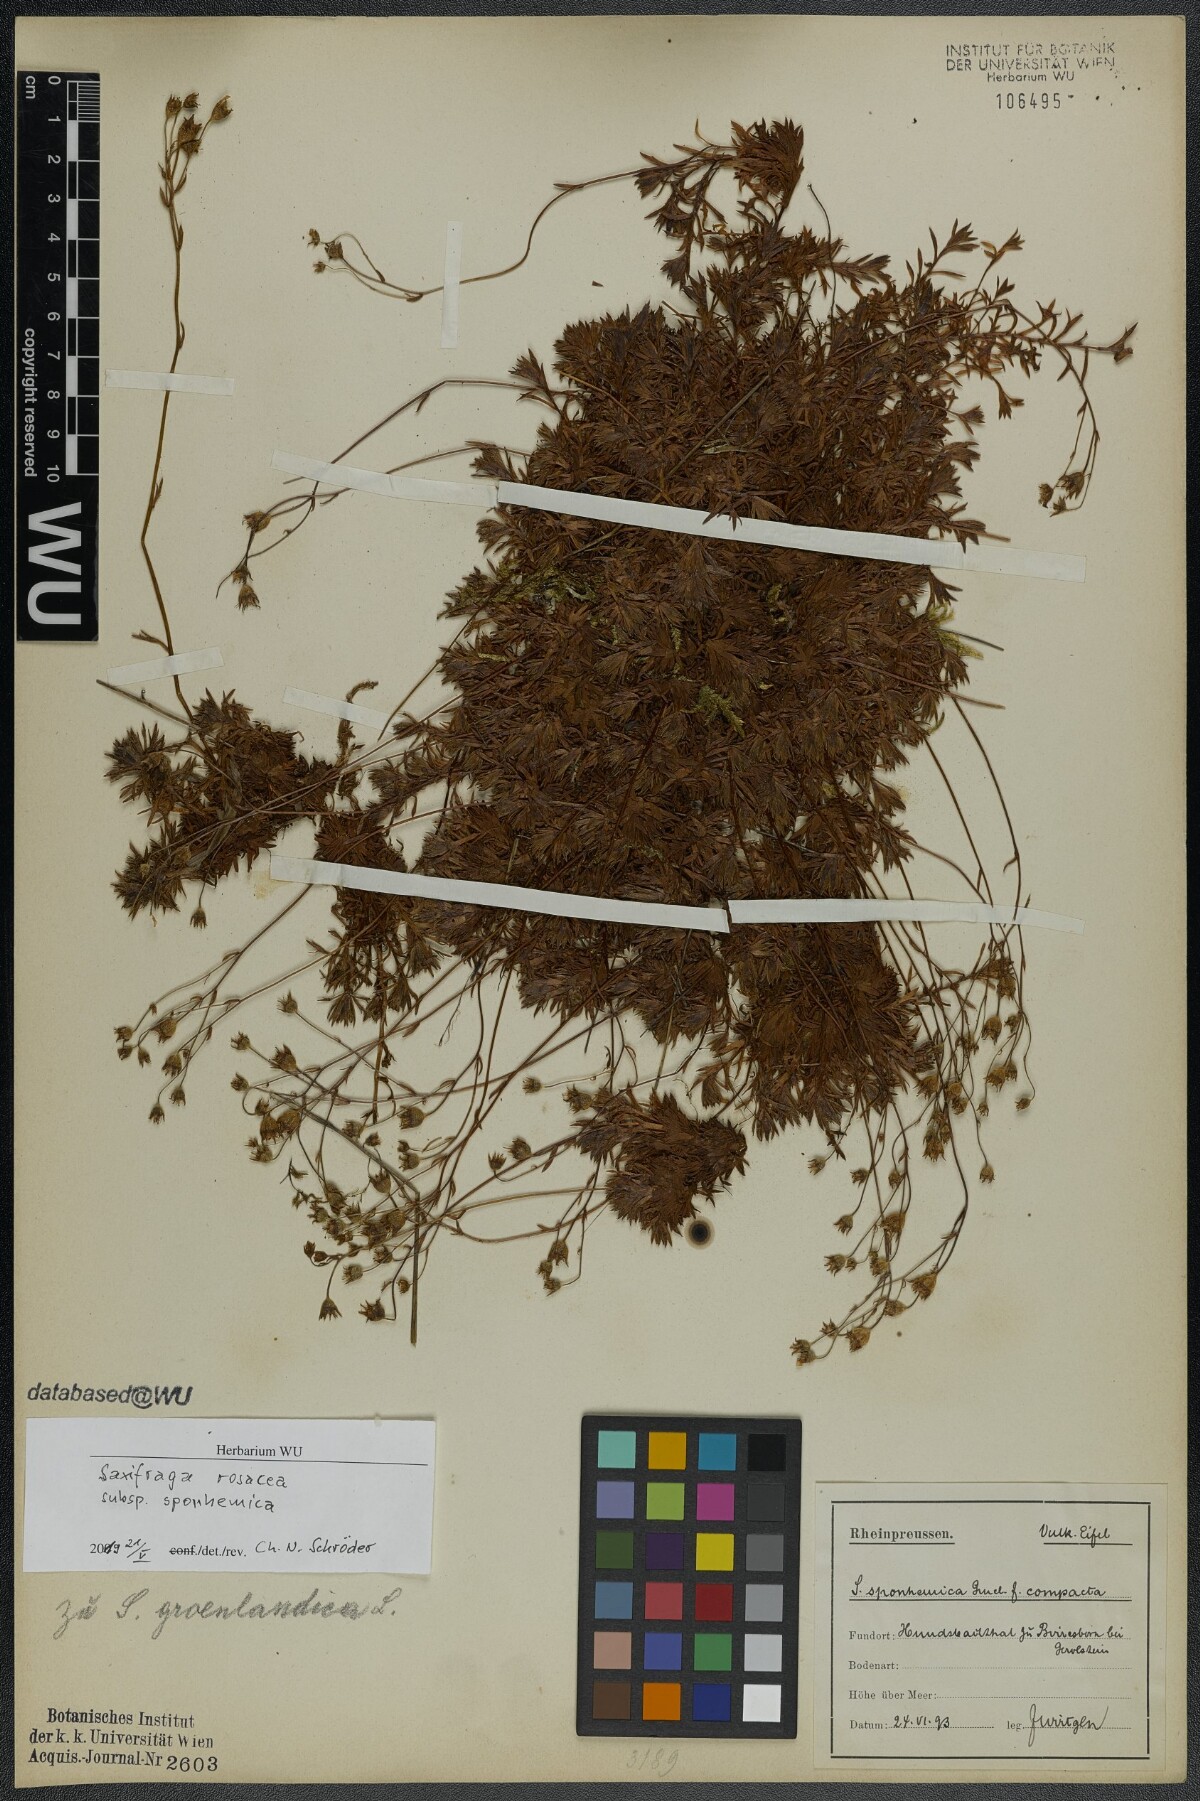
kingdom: Plantae
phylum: Tracheophyta
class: Magnoliopsida
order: Saxifragales
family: Saxifragaceae
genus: Saxifraga
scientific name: Saxifraga rosacea
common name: Irish saxifrage
